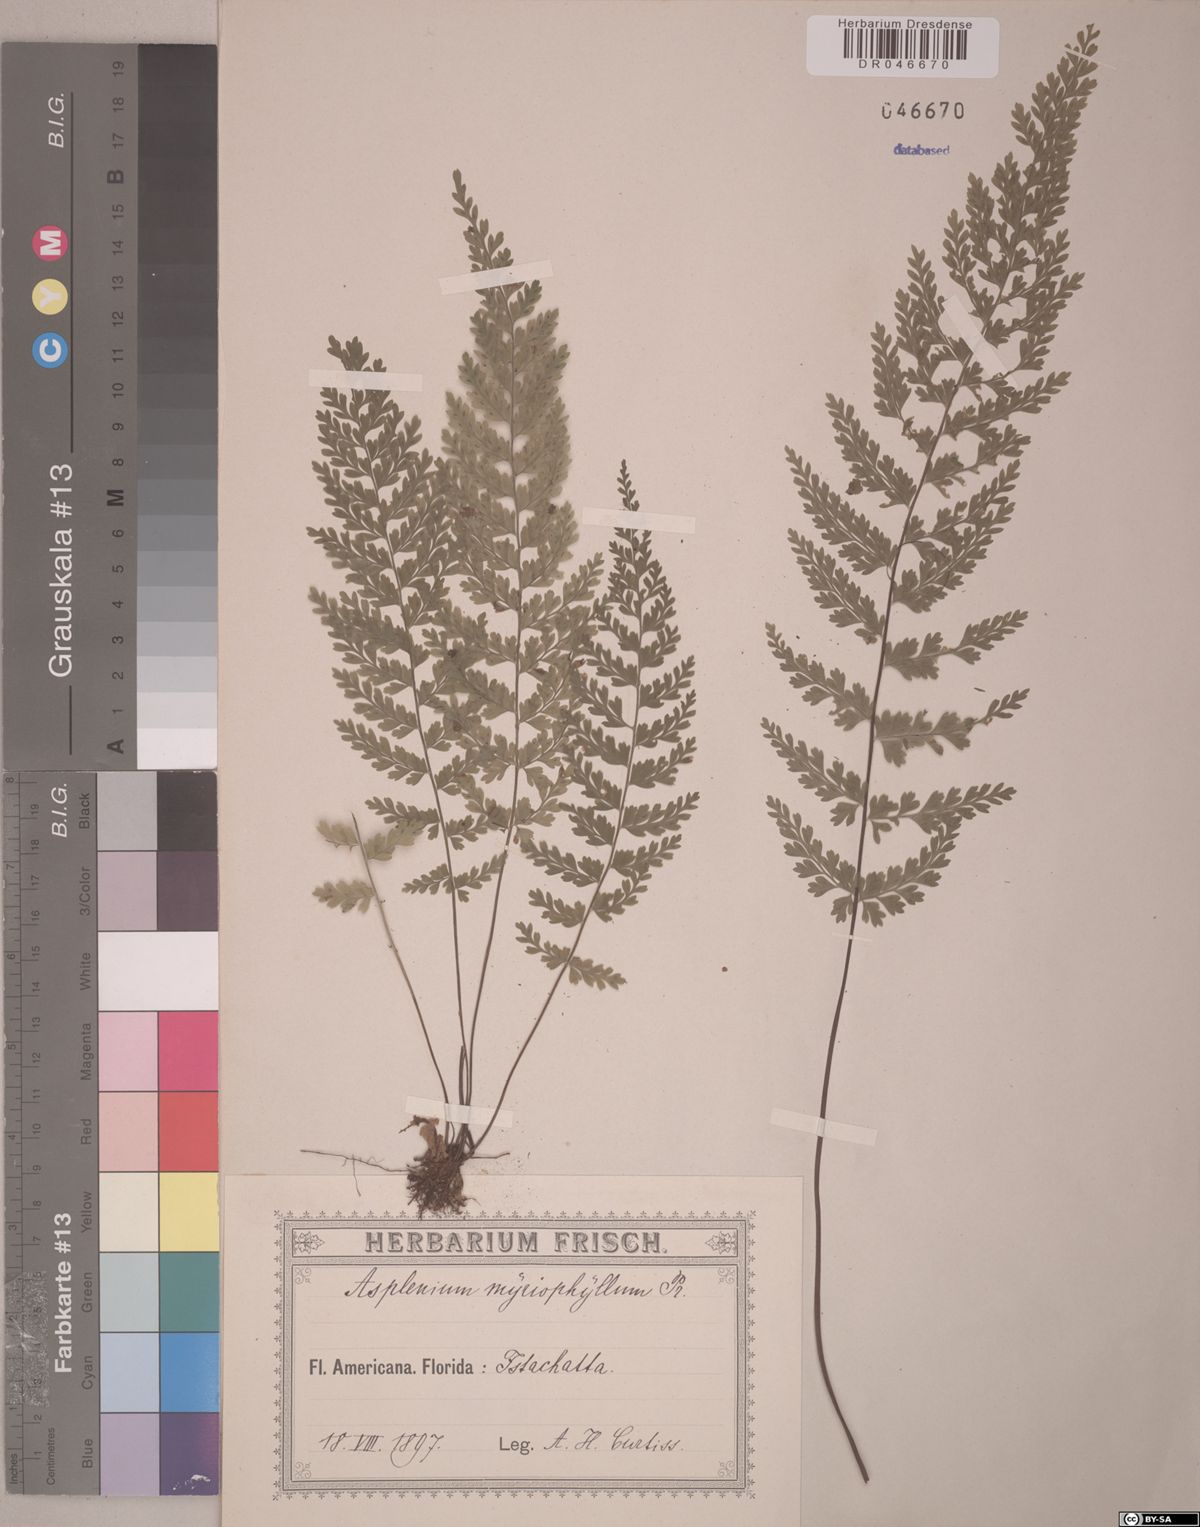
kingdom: Plantae
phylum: Tracheophyta
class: Polypodiopsida
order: Polypodiales
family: Aspleniaceae
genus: Asplenium
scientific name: Asplenium myriophyllum
